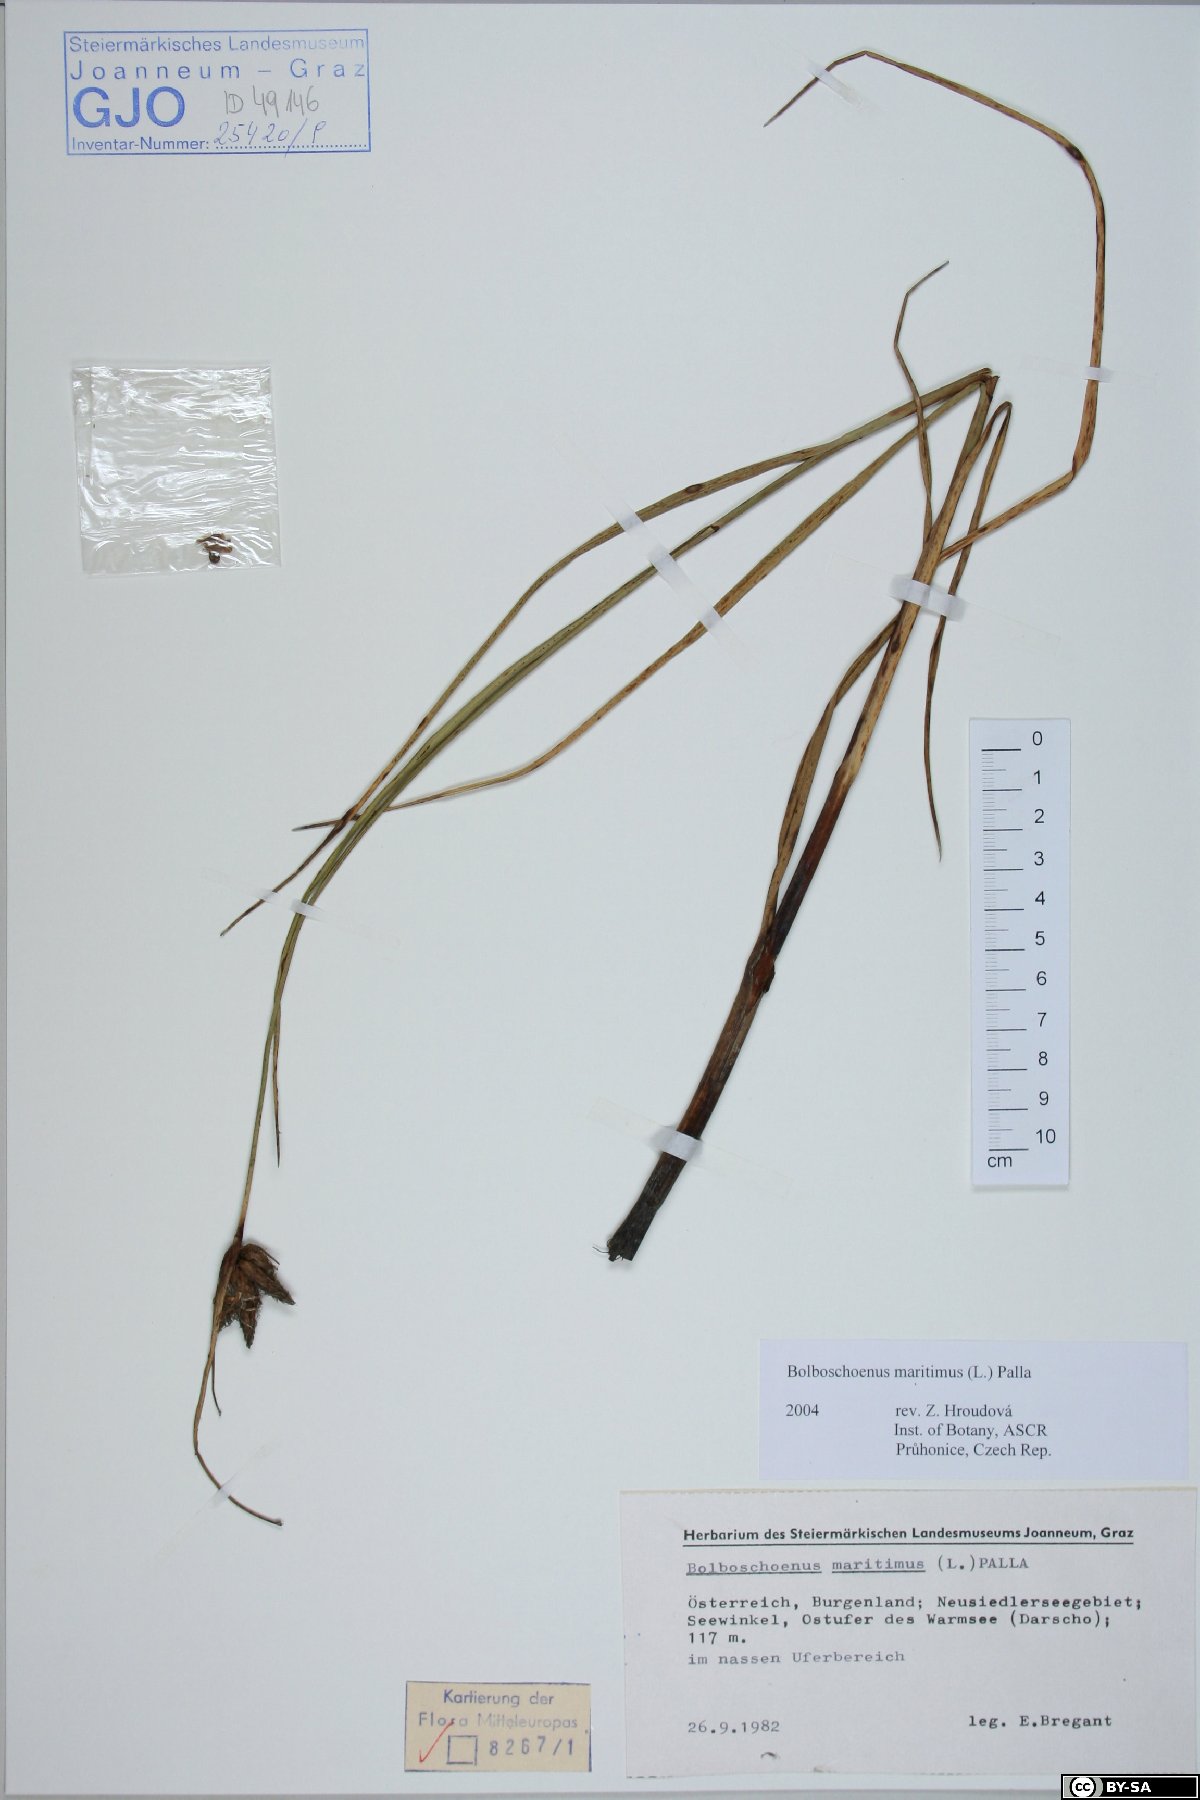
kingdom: Plantae
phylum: Tracheophyta
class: Liliopsida
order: Poales
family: Cyperaceae
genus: Bolboschoenus
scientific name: Bolboschoenus maritimus
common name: Sea club-rush
